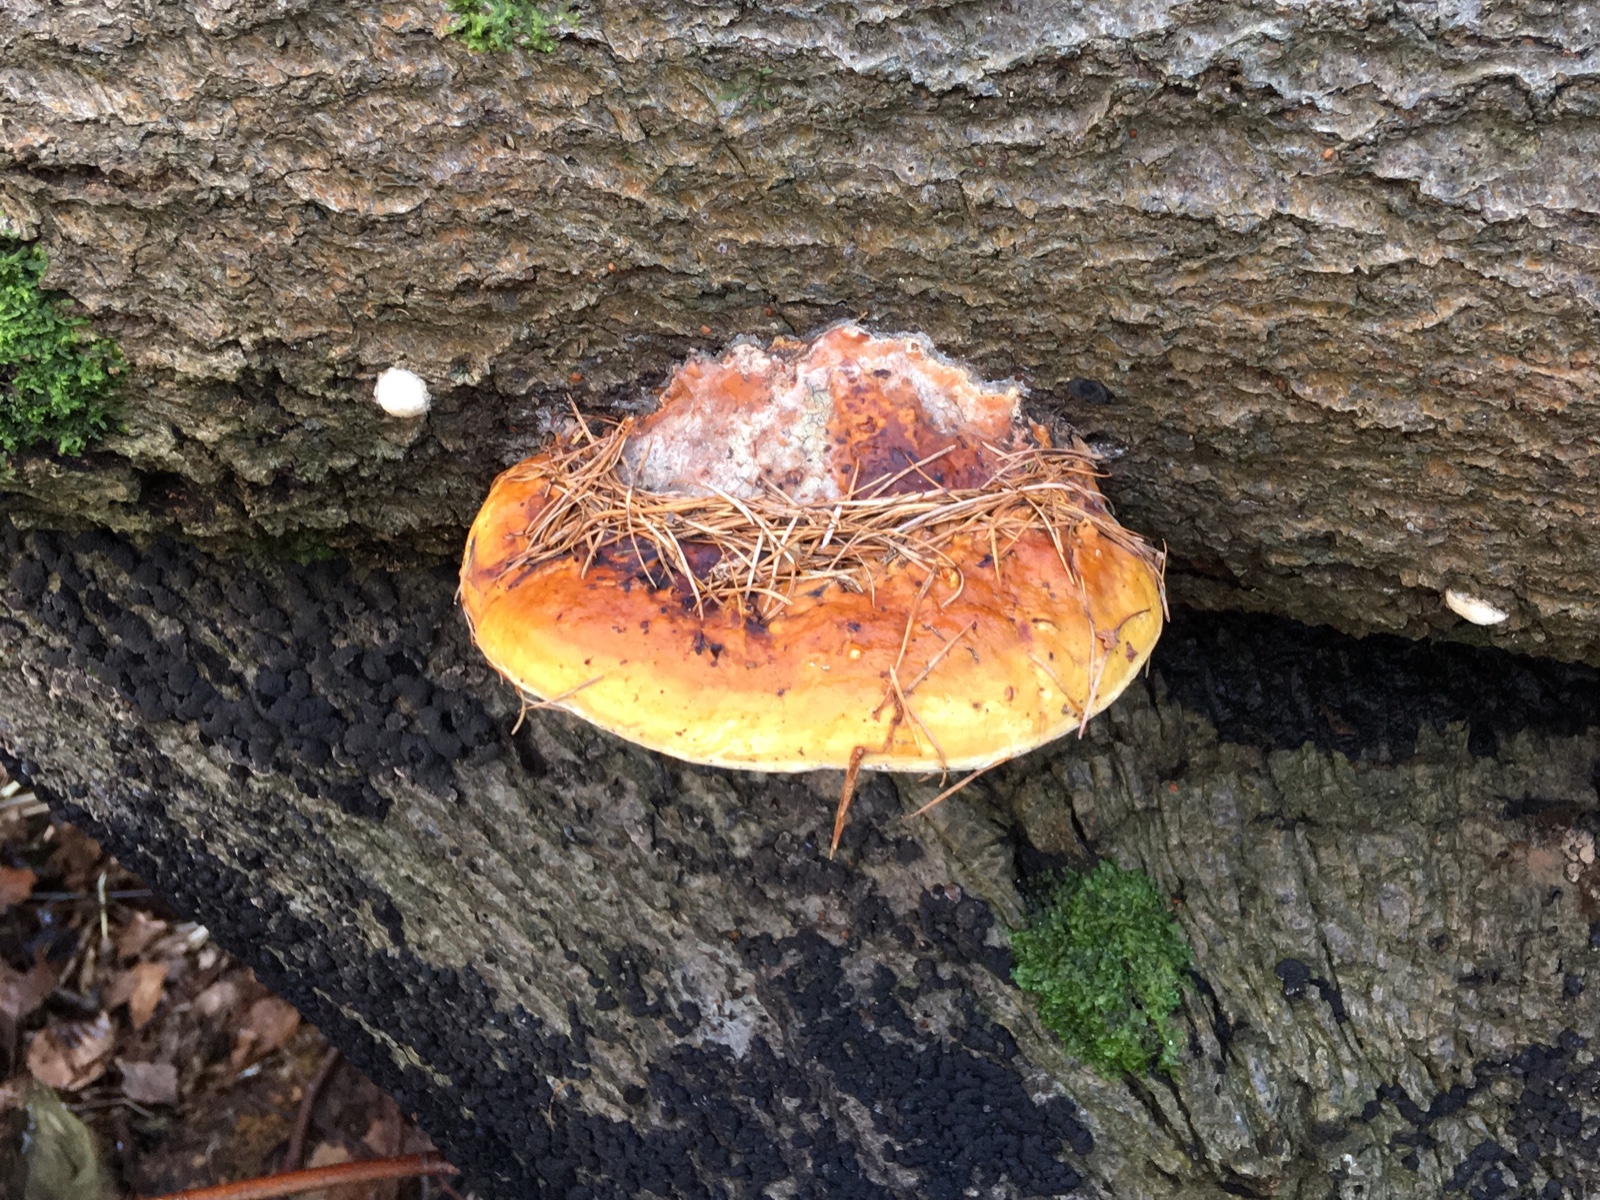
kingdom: Fungi
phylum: Basidiomycota
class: Agaricomycetes
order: Polyporales
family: Fomitopsidaceae
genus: Fomitopsis
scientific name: Fomitopsis pinicola
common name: randbæltet hovporesvamp
